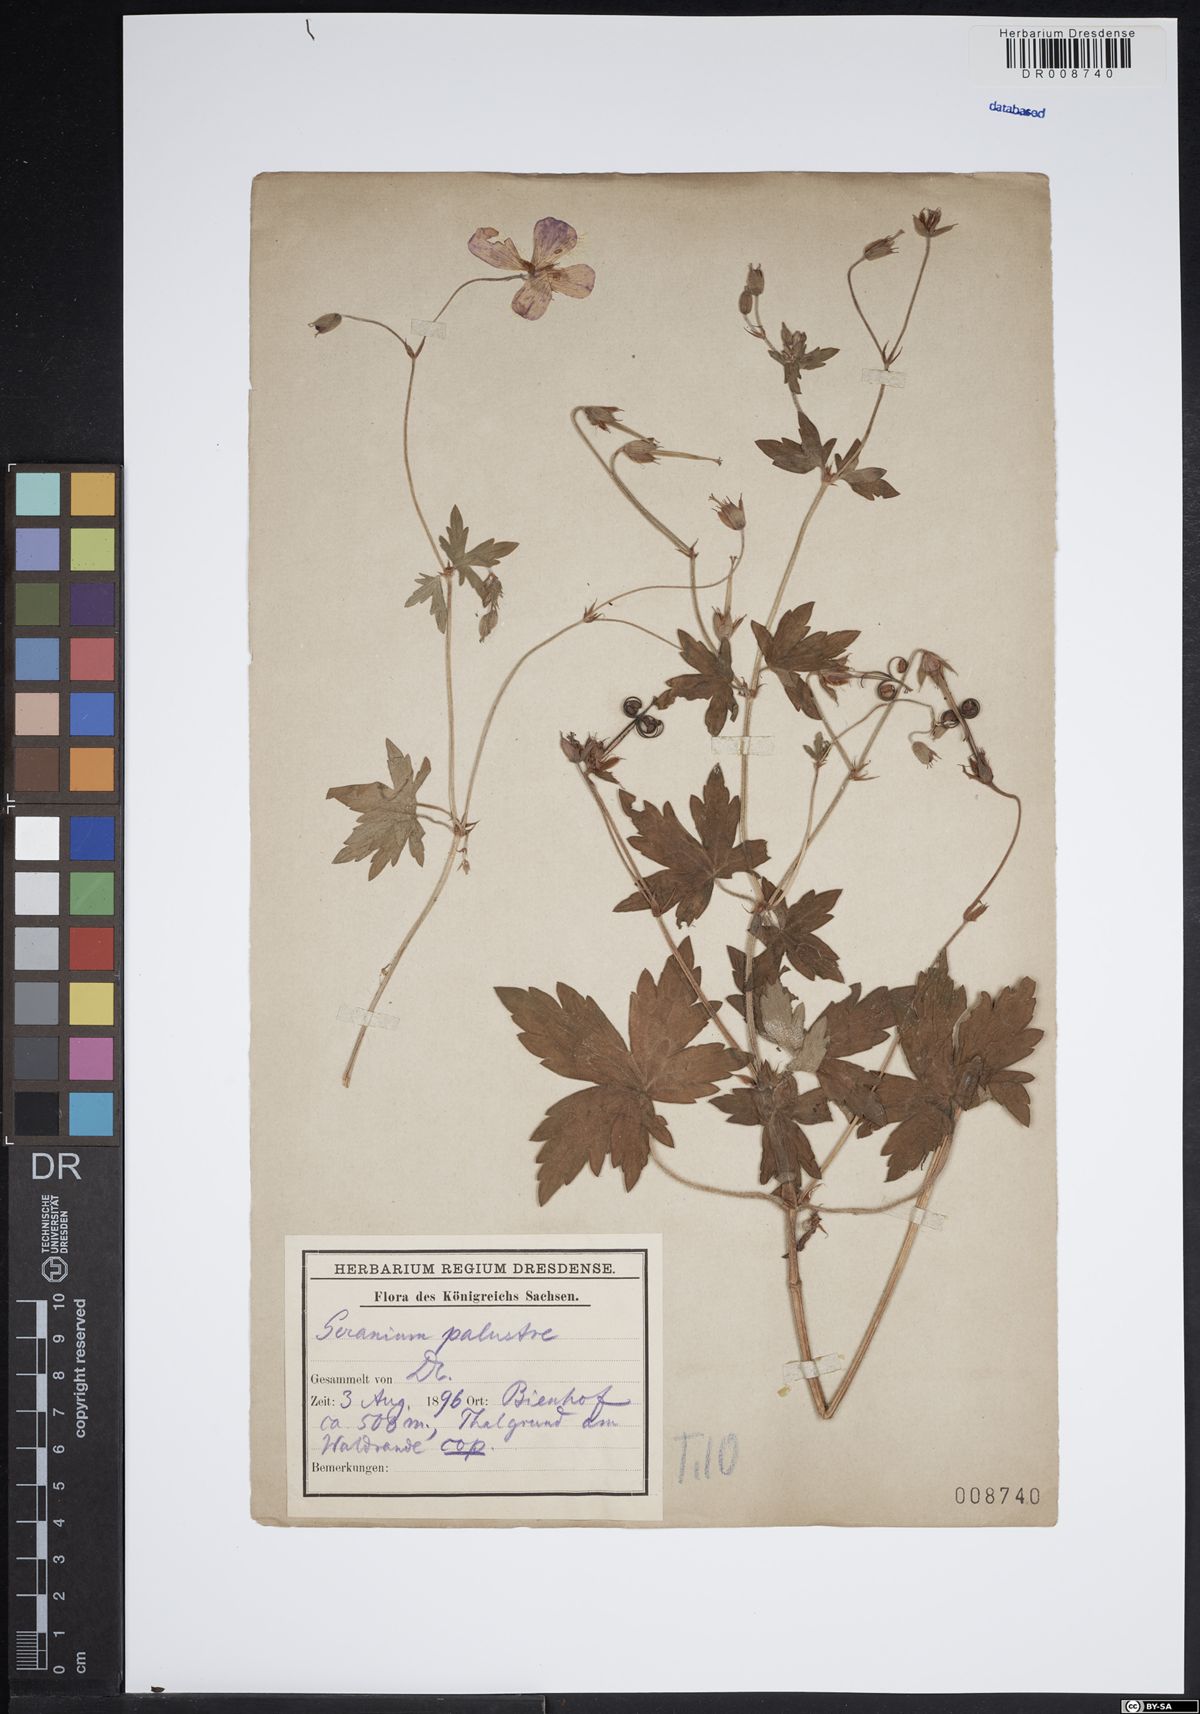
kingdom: Plantae
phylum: Tracheophyta
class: Magnoliopsida
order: Geraniales
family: Geraniaceae
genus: Geranium
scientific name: Geranium palustre
